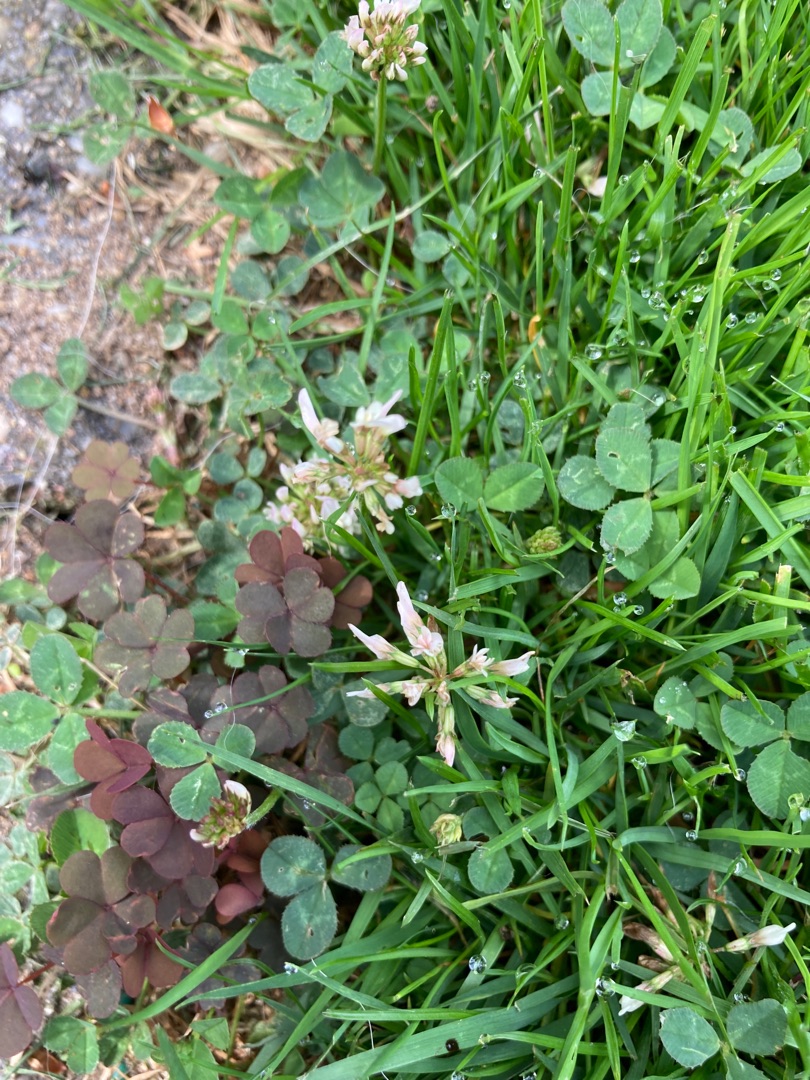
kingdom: Plantae
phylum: Tracheophyta
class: Magnoliopsida
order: Fabales
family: Fabaceae
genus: Trifolium
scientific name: Trifolium repens
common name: Hvid-kløver
